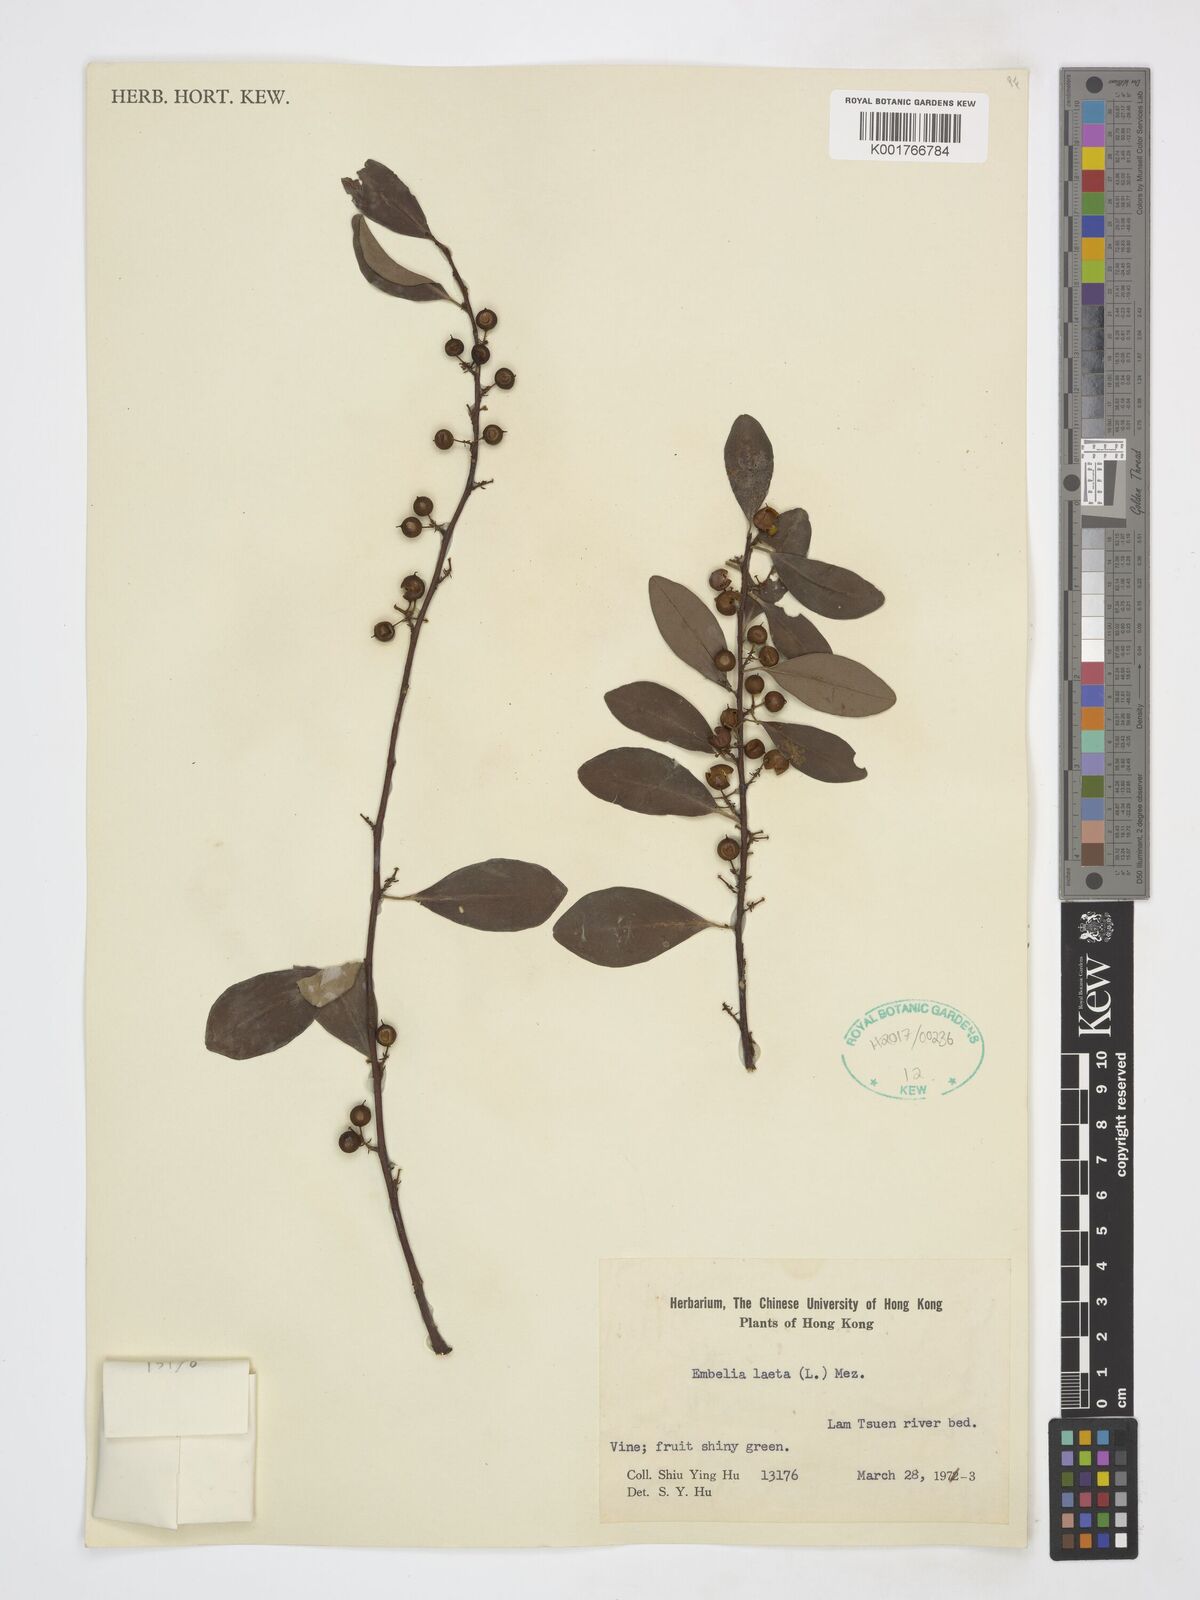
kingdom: Plantae
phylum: Tracheophyta
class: Magnoliopsida
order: Ericales
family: Primulaceae
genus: Embelia
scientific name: Embelia laeta
